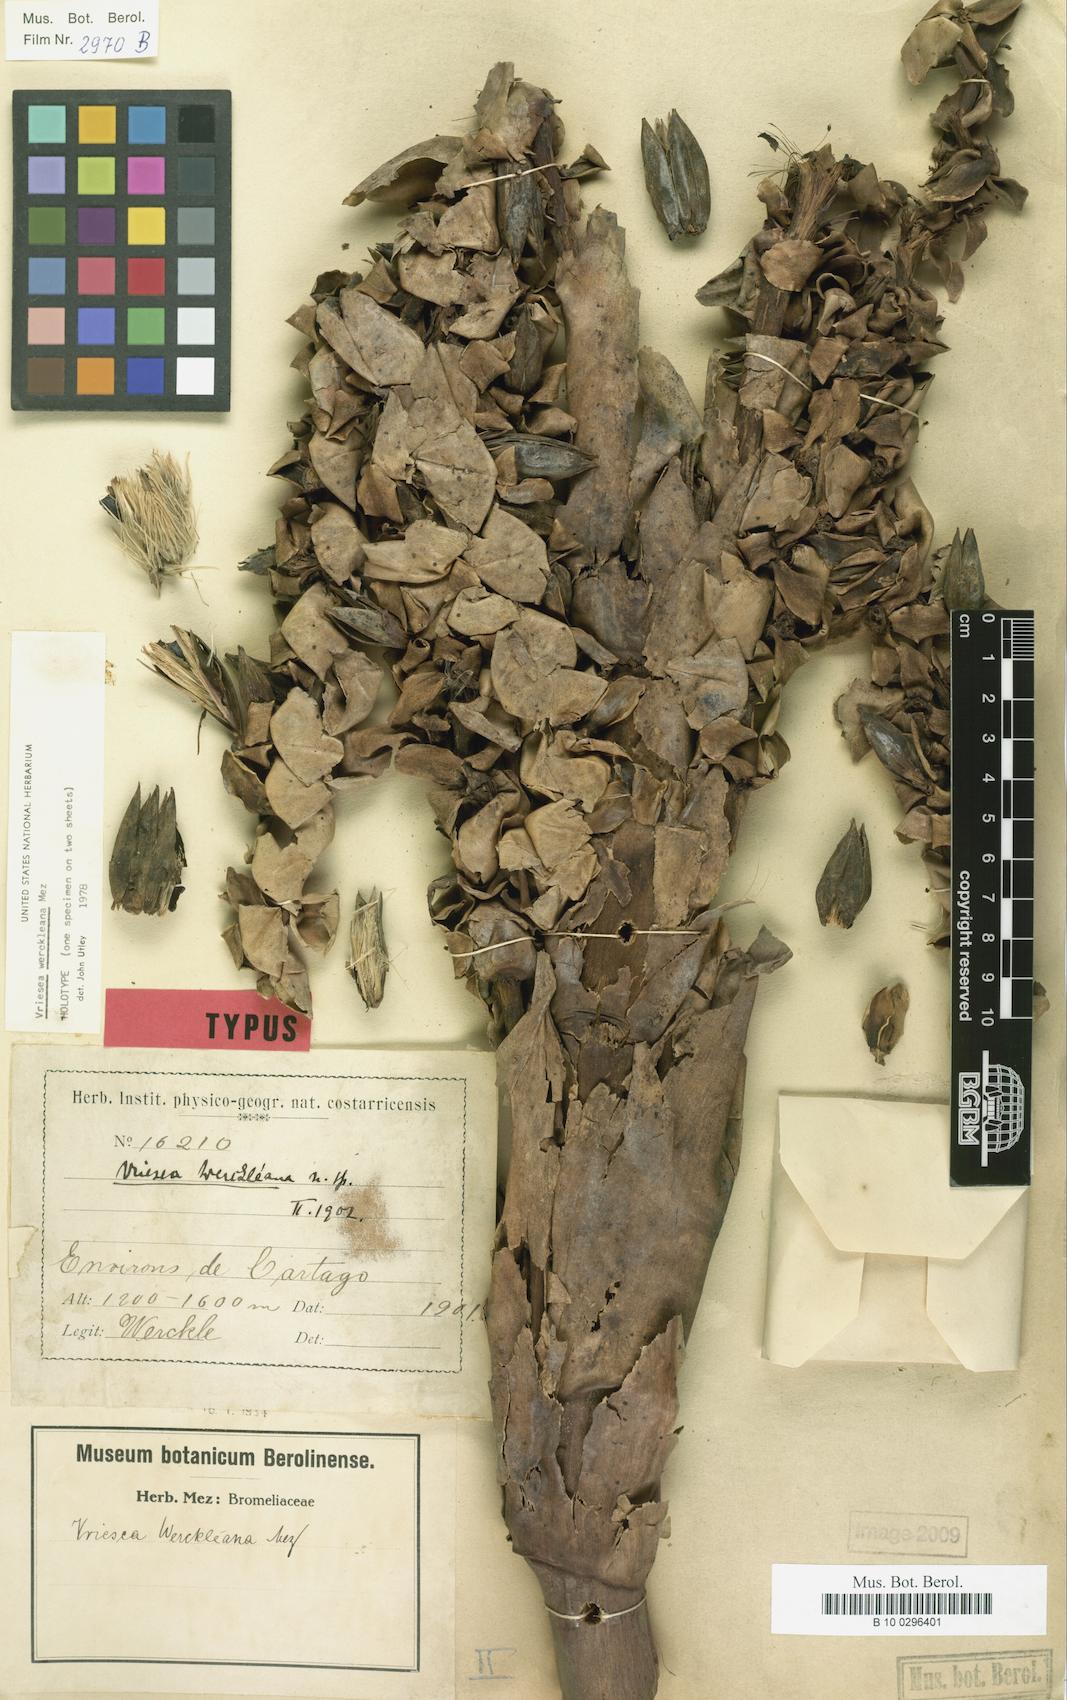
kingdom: Plantae
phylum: Tracheophyta
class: Liliopsida
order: Poales
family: Bromeliaceae
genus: Werauhia
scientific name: Werauhia werckleana
